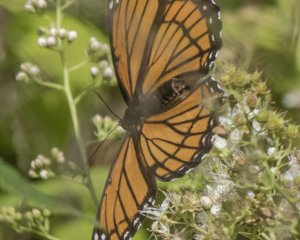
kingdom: Animalia
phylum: Arthropoda
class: Insecta
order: Lepidoptera
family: Nymphalidae
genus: Limenitis
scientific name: Limenitis archippus
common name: Viceroy
